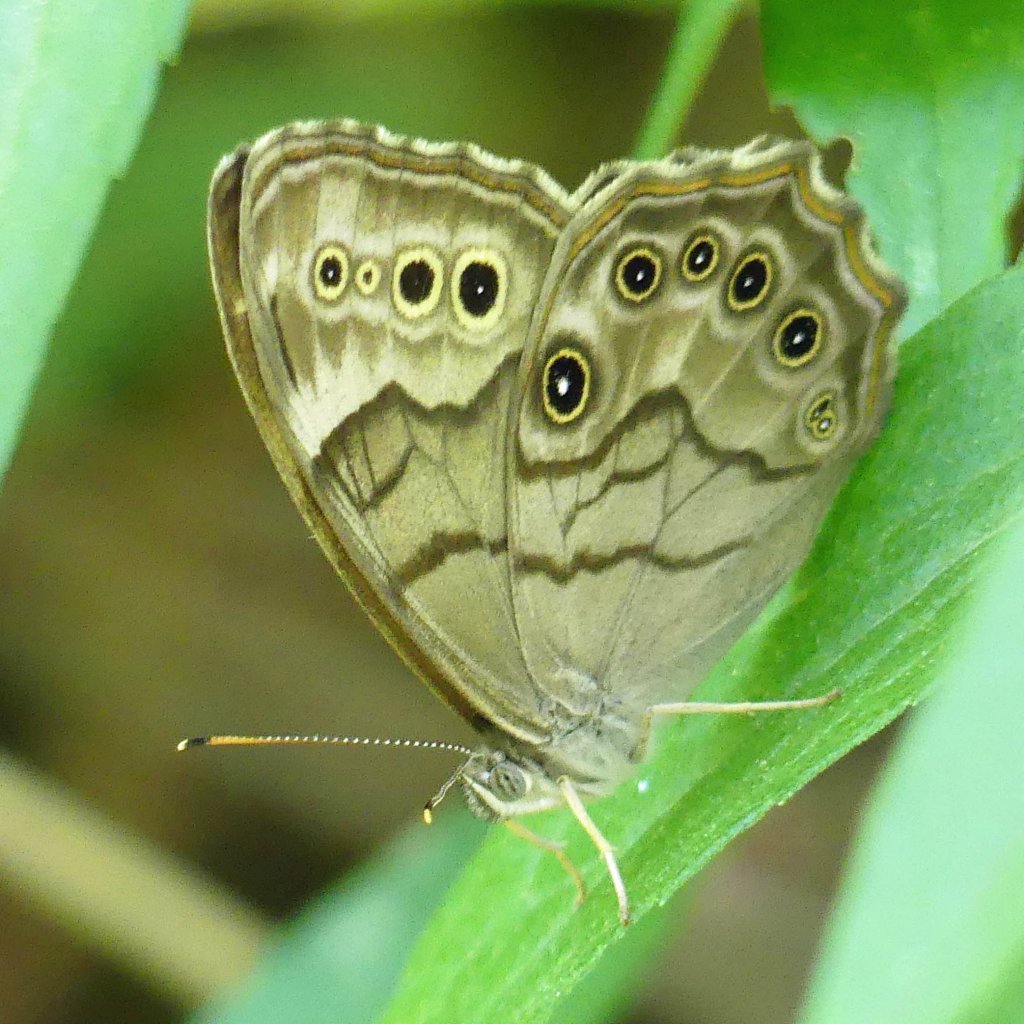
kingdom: Animalia
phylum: Arthropoda
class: Insecta
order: Lepidoptera
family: Nymphalidae
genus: Lethe
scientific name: Lethe anthedon
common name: Northern Pearly-Eye
